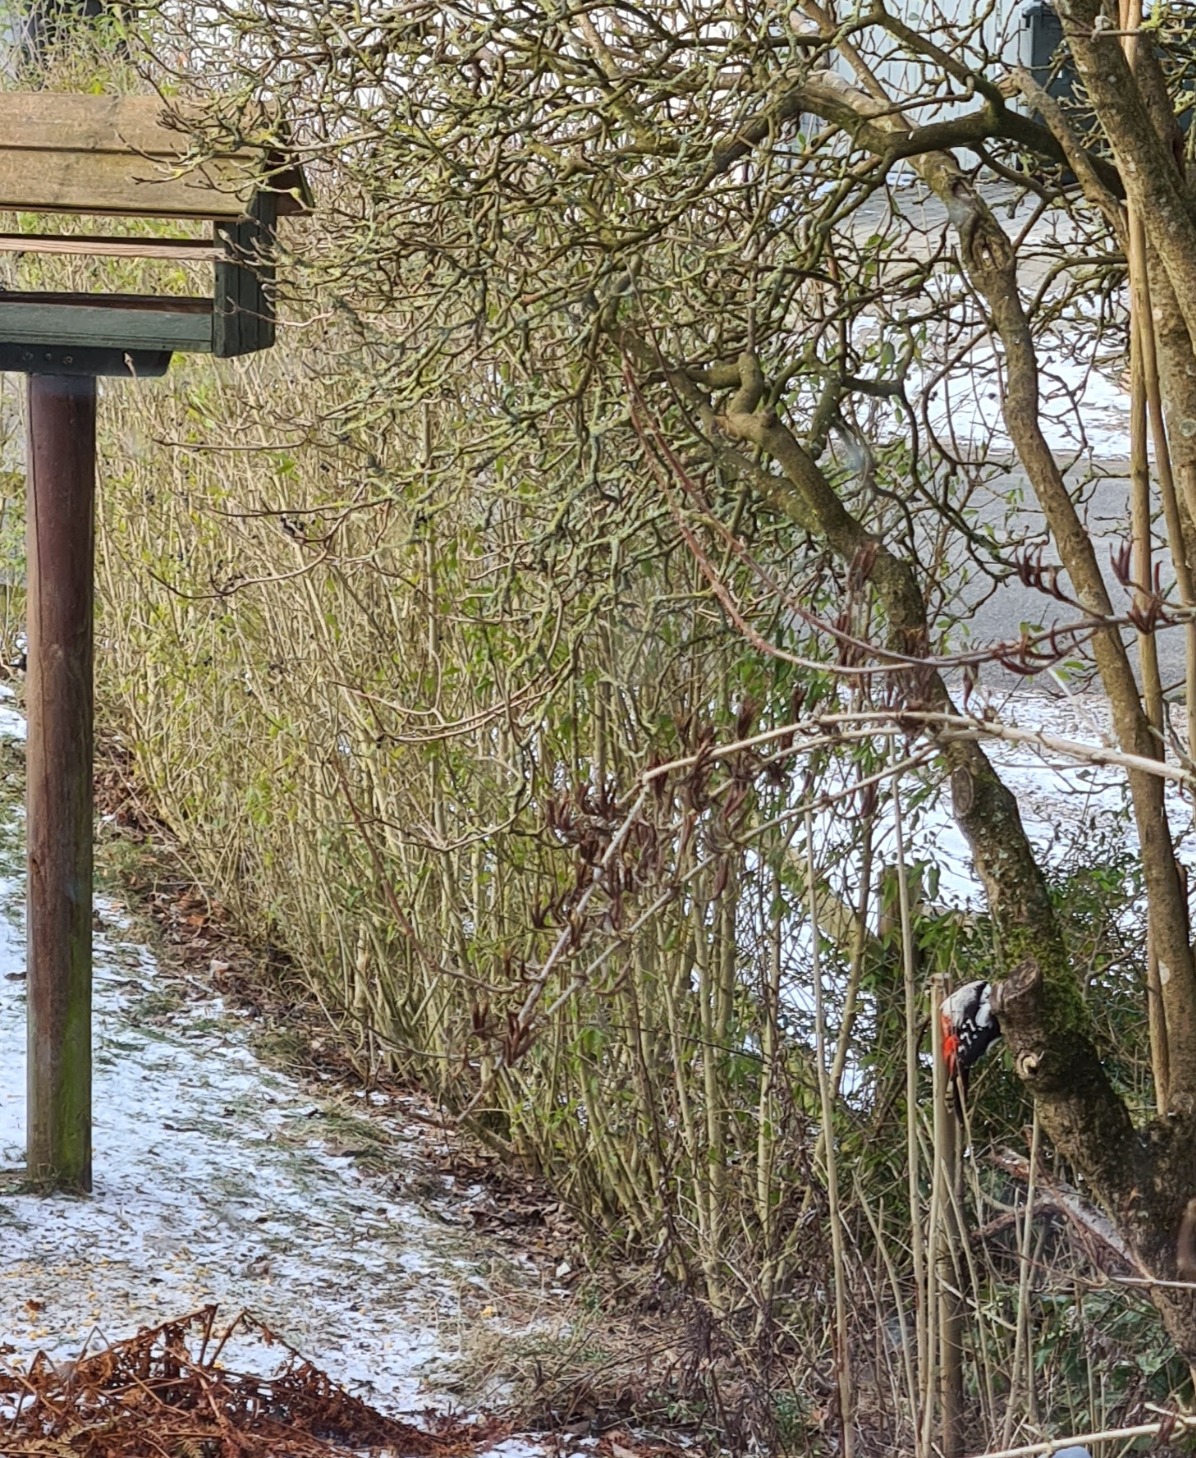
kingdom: Animalia
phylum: Chordata
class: Aves
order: Piciformes
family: Picidae
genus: Dendrocopos
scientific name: Dendrocopos major
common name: Stor flagspætte
